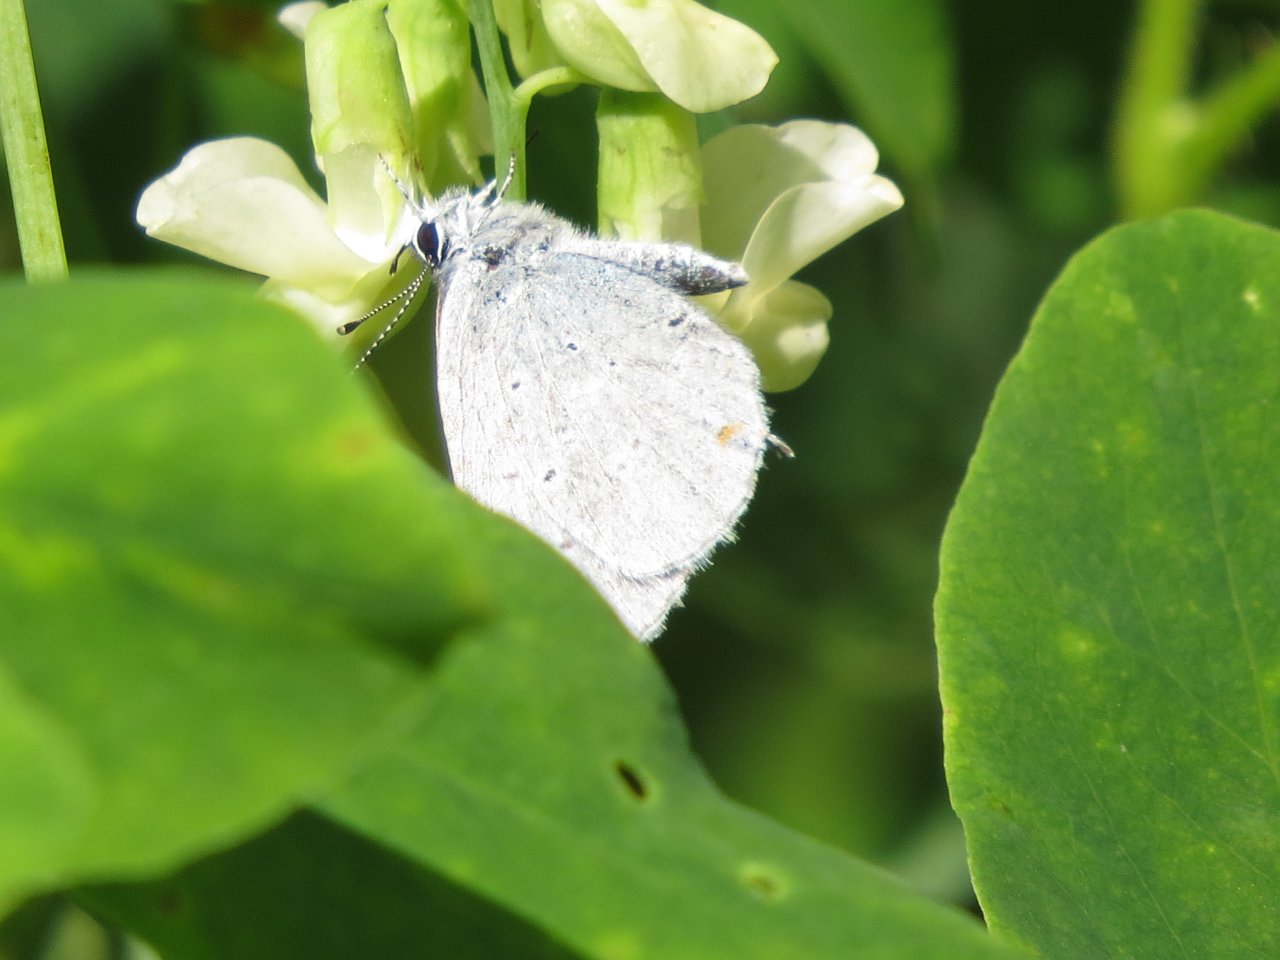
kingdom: Animalia
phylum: Arthropoda
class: Insecta
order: Lepidoptera
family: Lycaenidae
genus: Elkalyce
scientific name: Elkalyce amyntula
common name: Western Tailed-Blue
